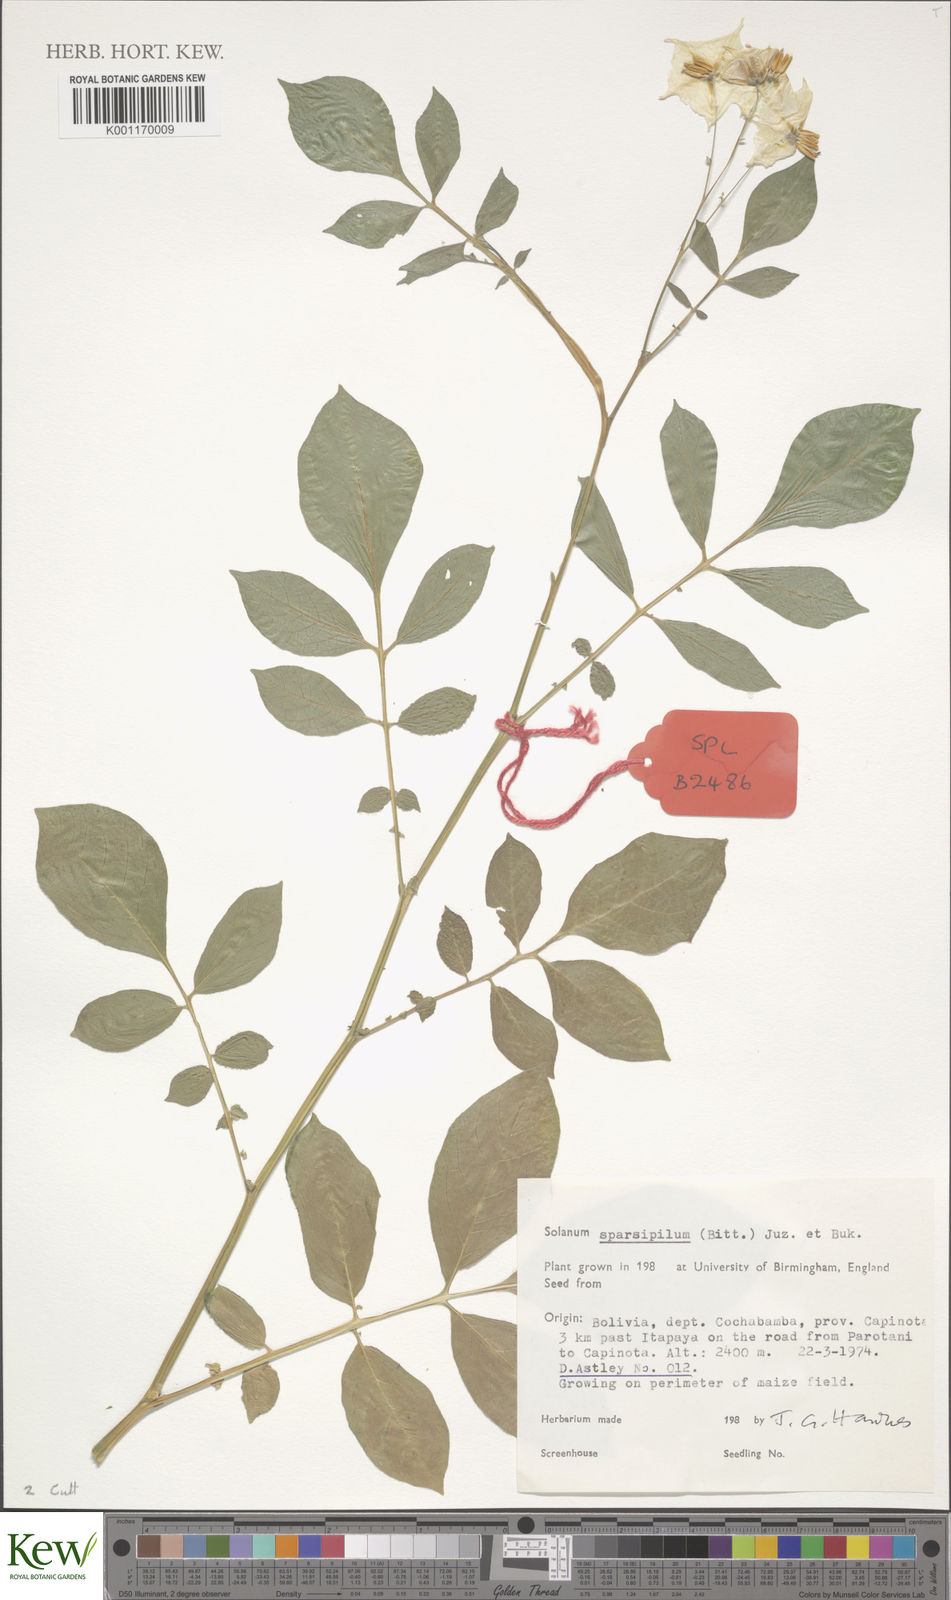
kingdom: Plantae
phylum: Tracheophyta
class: Magnoliopsida
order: Solanales
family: Solanaceae
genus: Solanum
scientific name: Solanum brevicaule
